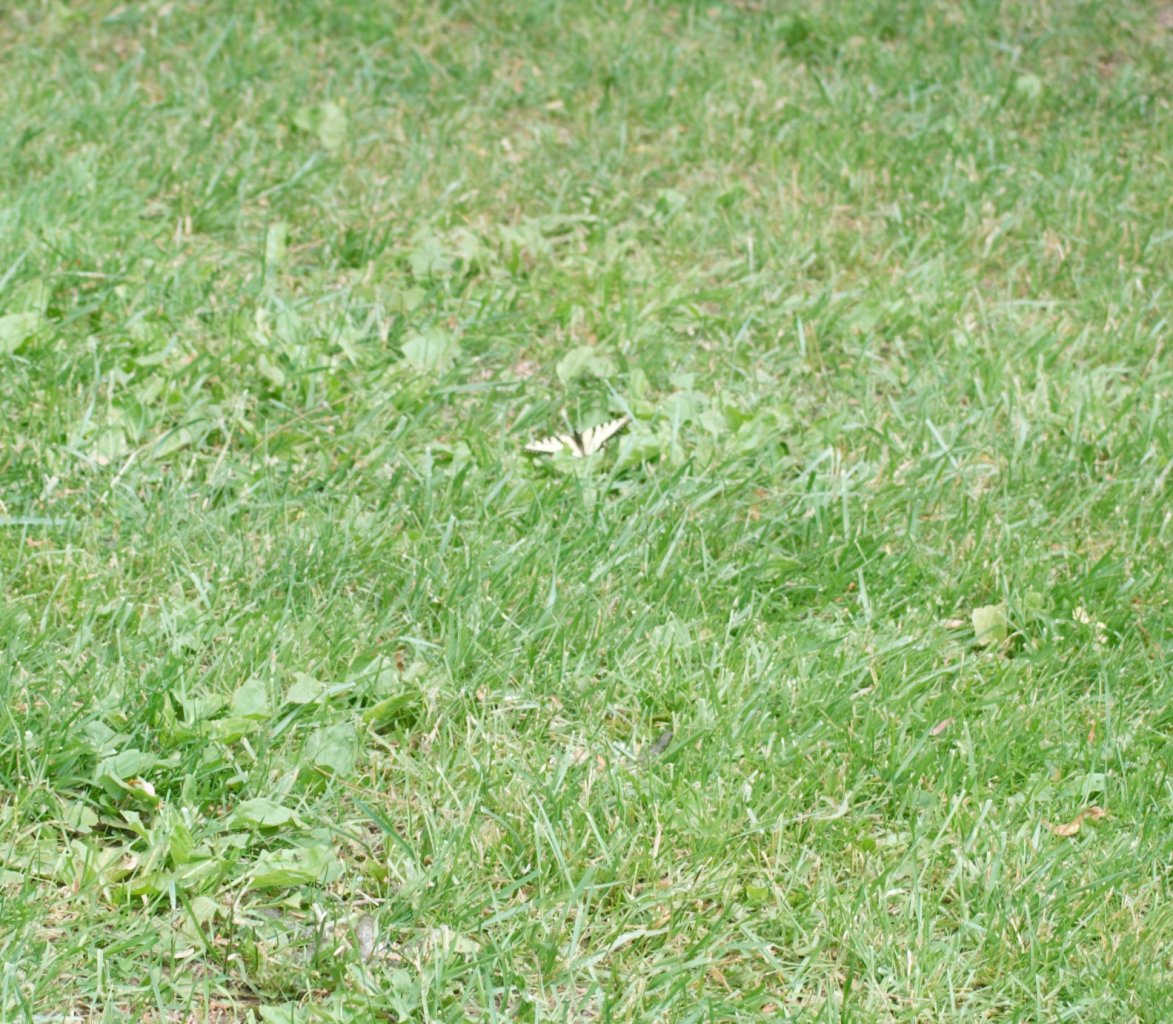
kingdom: Animalia
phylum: Arthropoda
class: Insecta
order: Lepidoptera
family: Papilionidae
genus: Pterourus
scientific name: Pterourus glaucus
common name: Eastern Tiger Swallowtail
